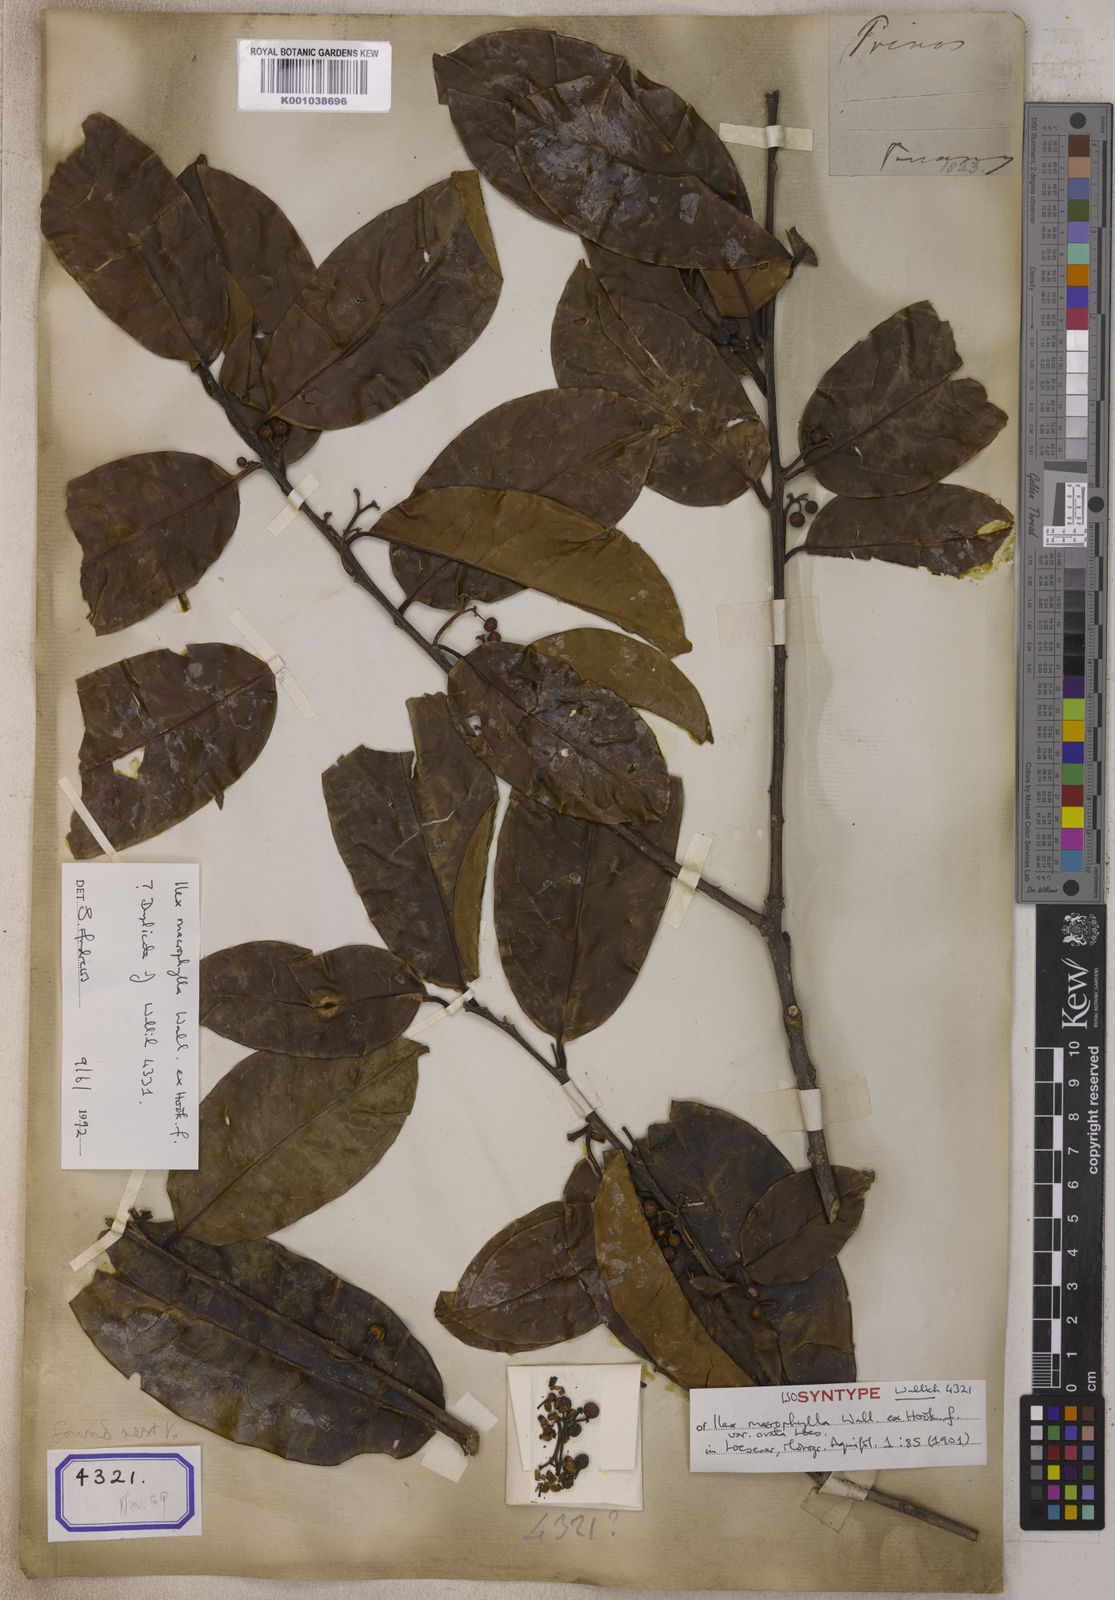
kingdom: Plantae
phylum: Tracheophyta
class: Magnoliopsida
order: Celastrales
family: Celastraceae
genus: Celastrus
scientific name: Celastrus
